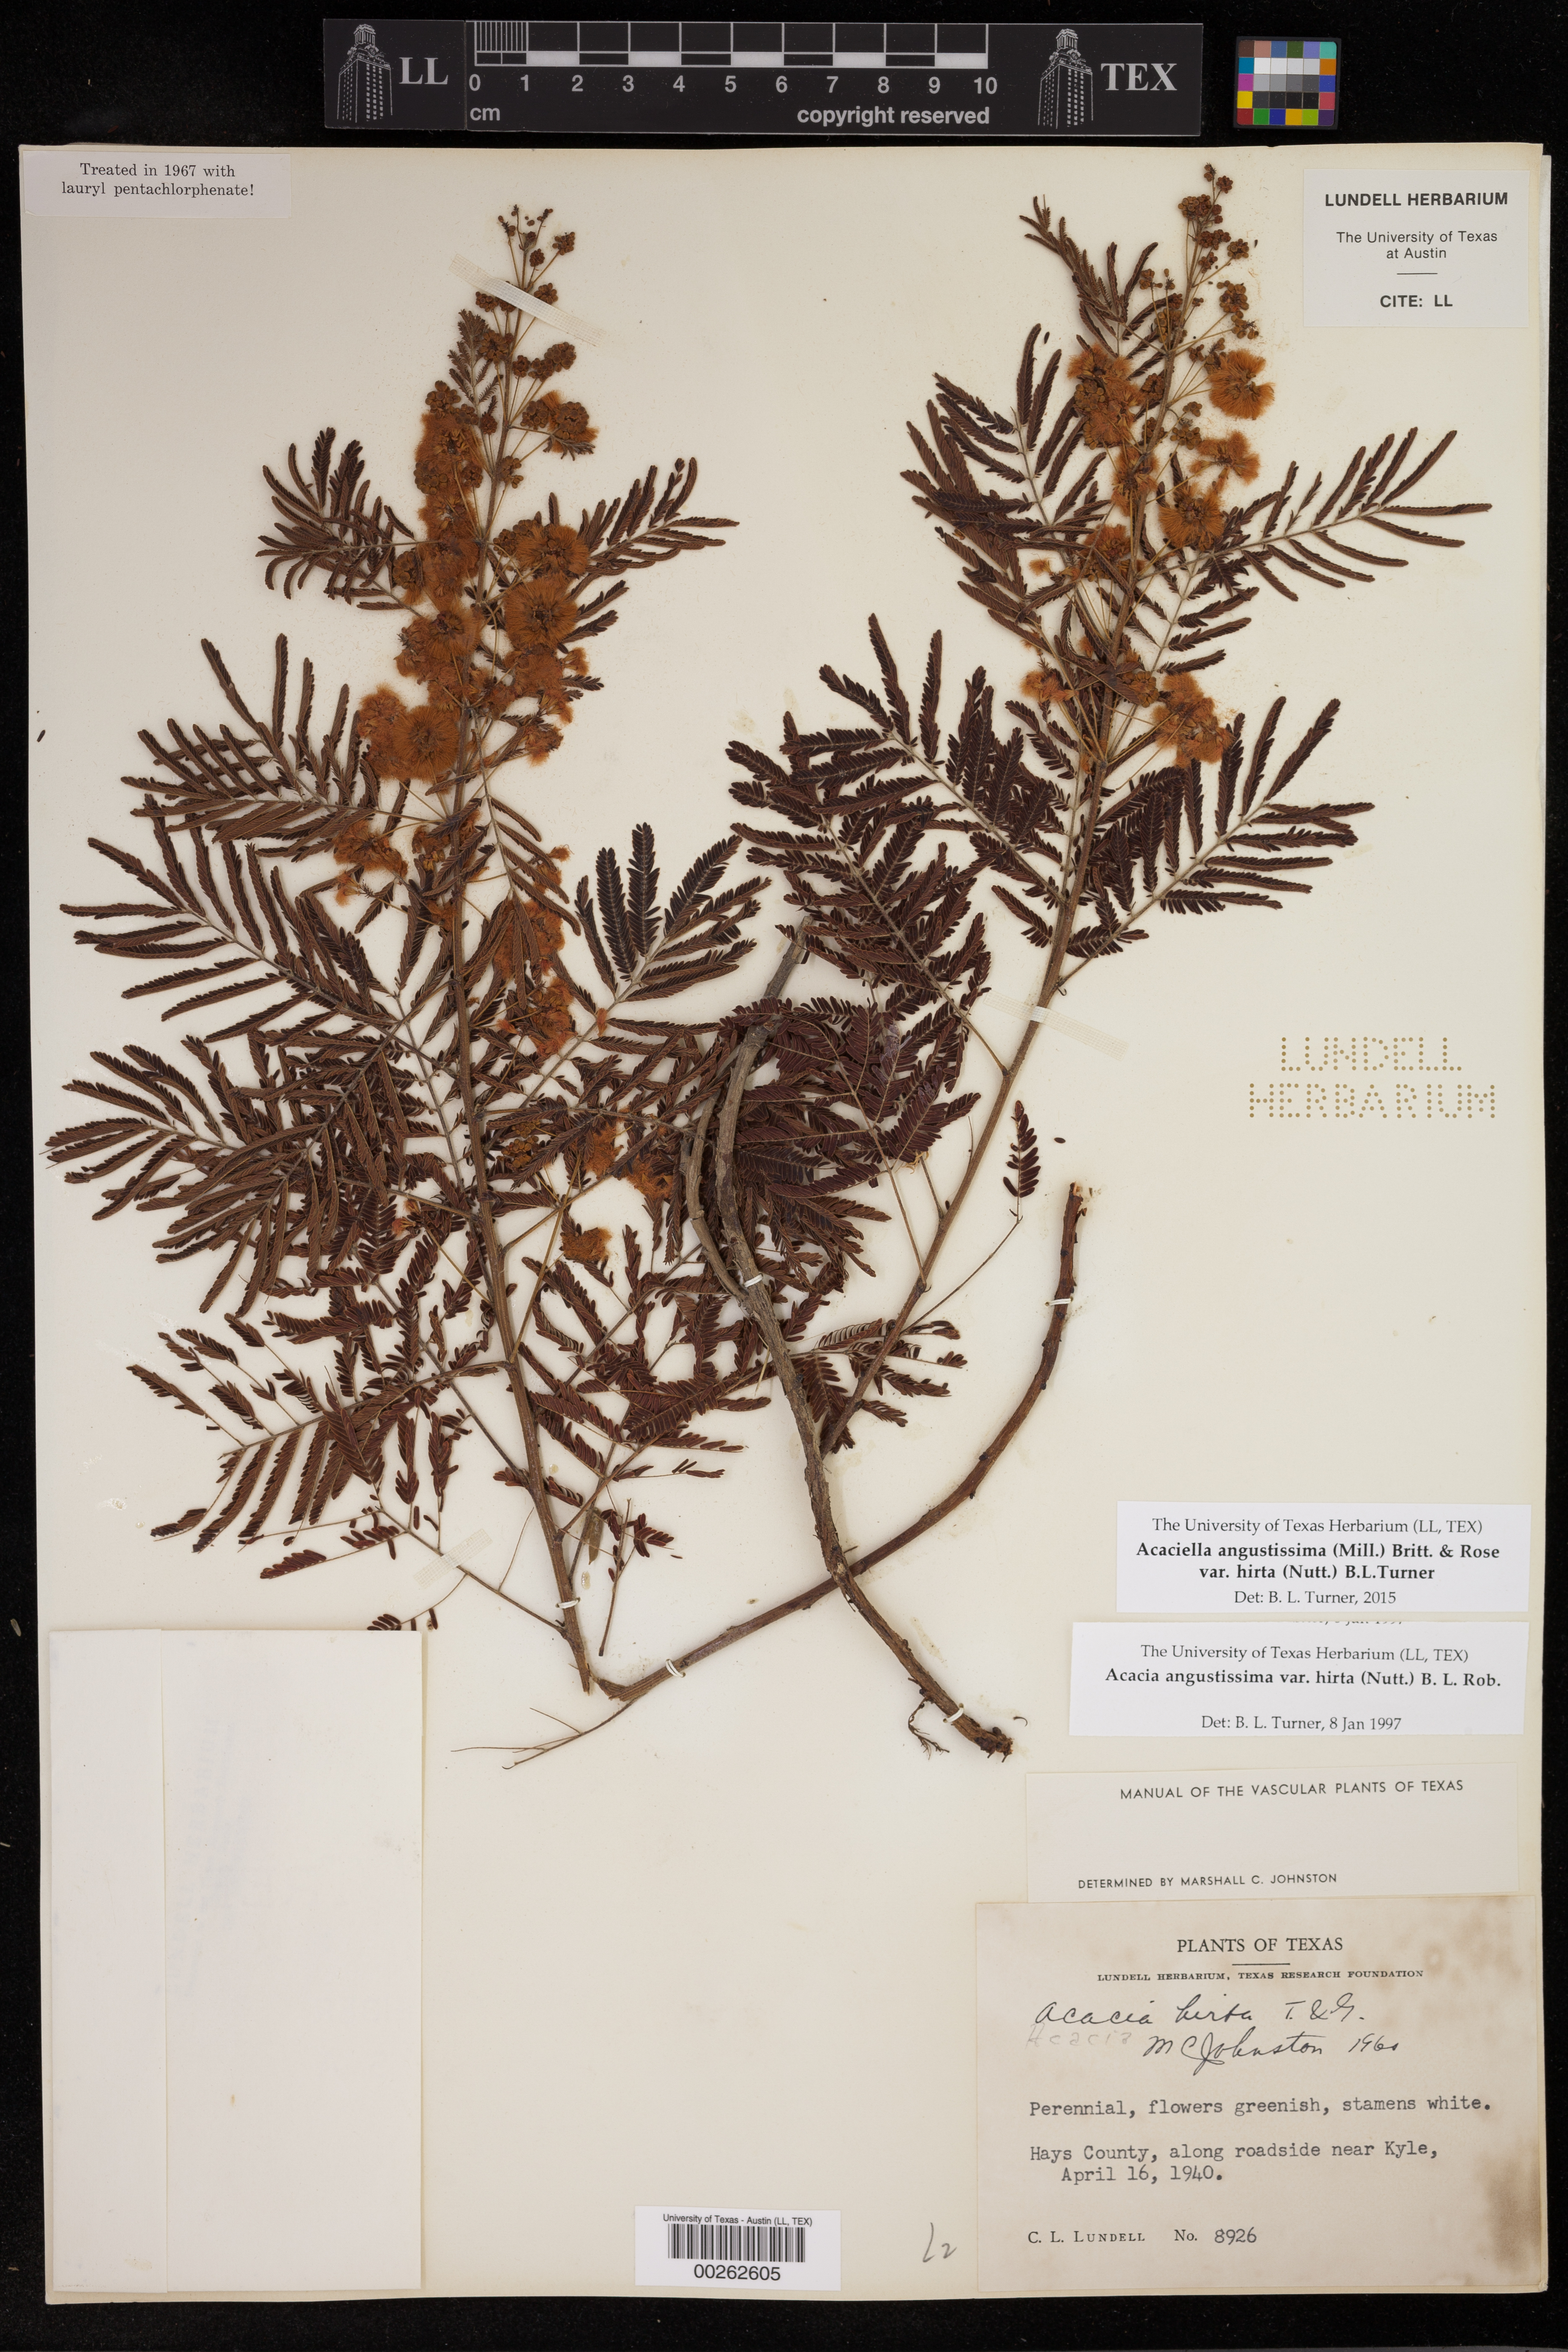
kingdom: Plantae
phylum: Tracheophyta
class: Magnoliopsida
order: Fabales
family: Fabaceae
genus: Acaciella
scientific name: Acaciella angustissima
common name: Prairie acacia
